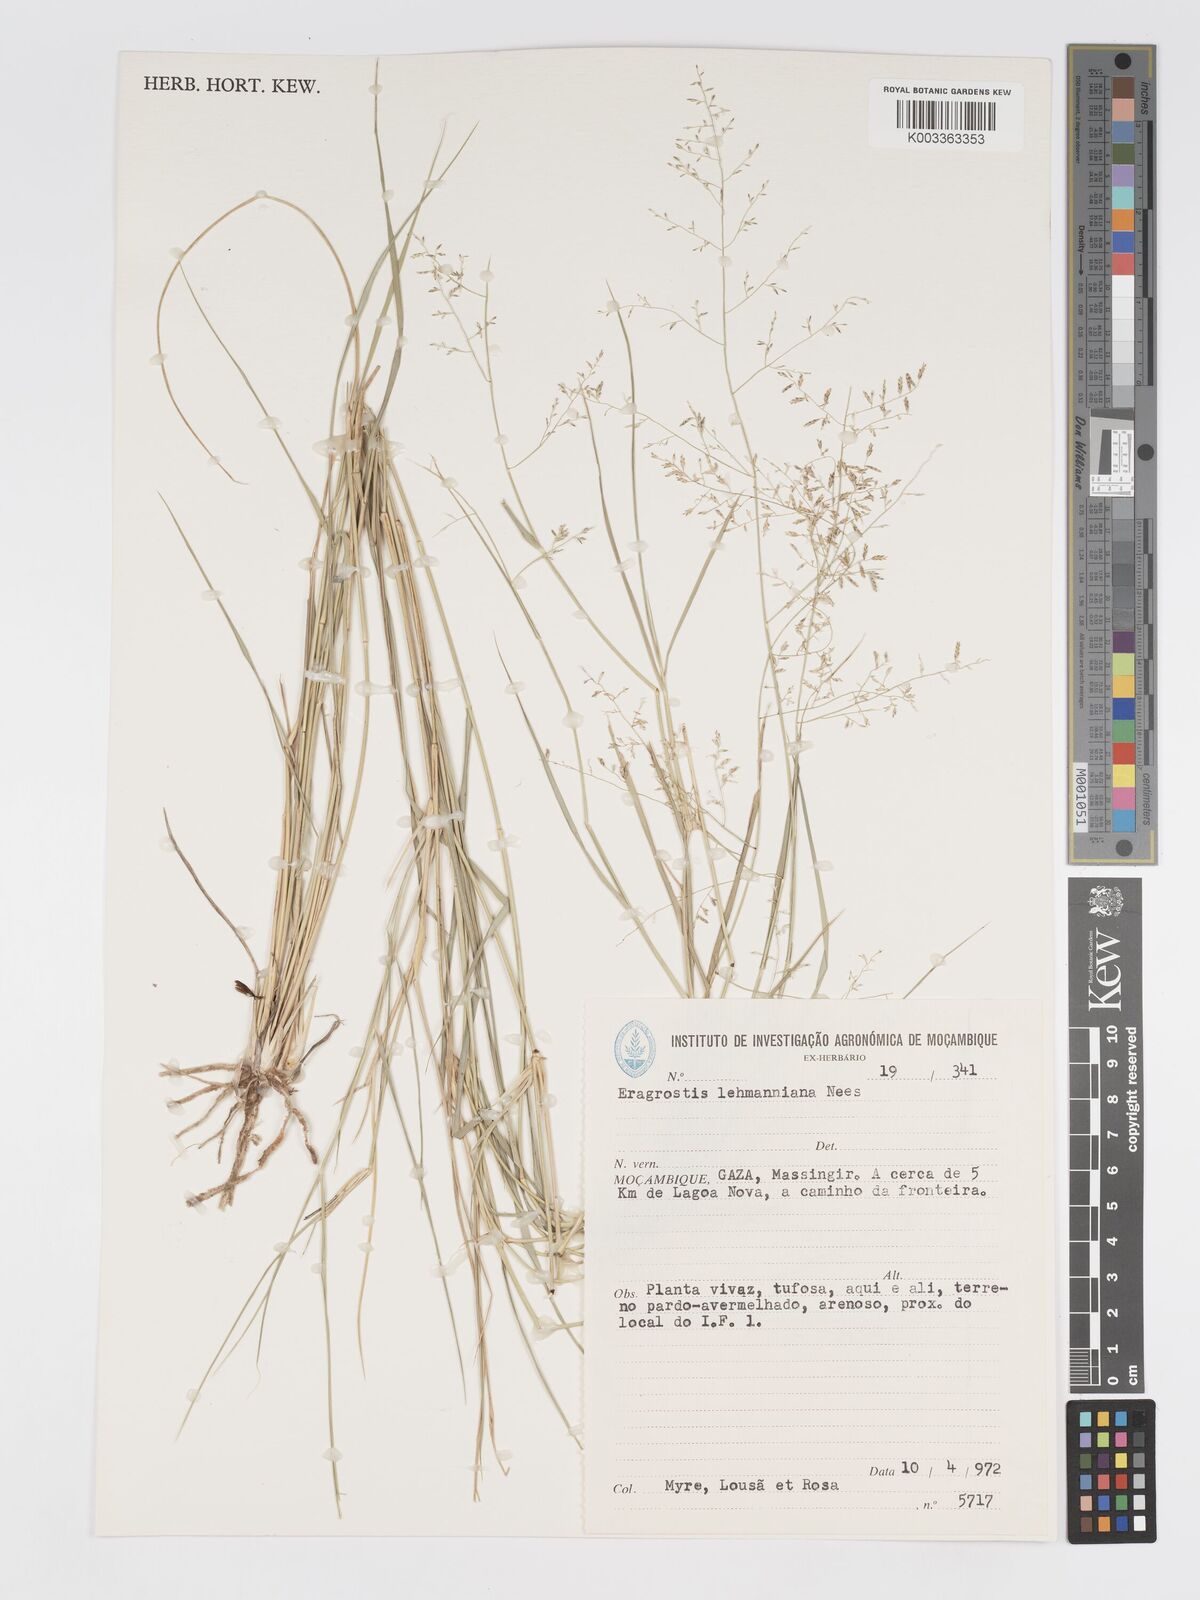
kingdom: Plantae
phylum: Tracheophyta
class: Liliopsida
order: Poales
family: Poaceae
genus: Eragrostis
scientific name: Eragrostis lehmanniana
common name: Lehmann lovegrass
